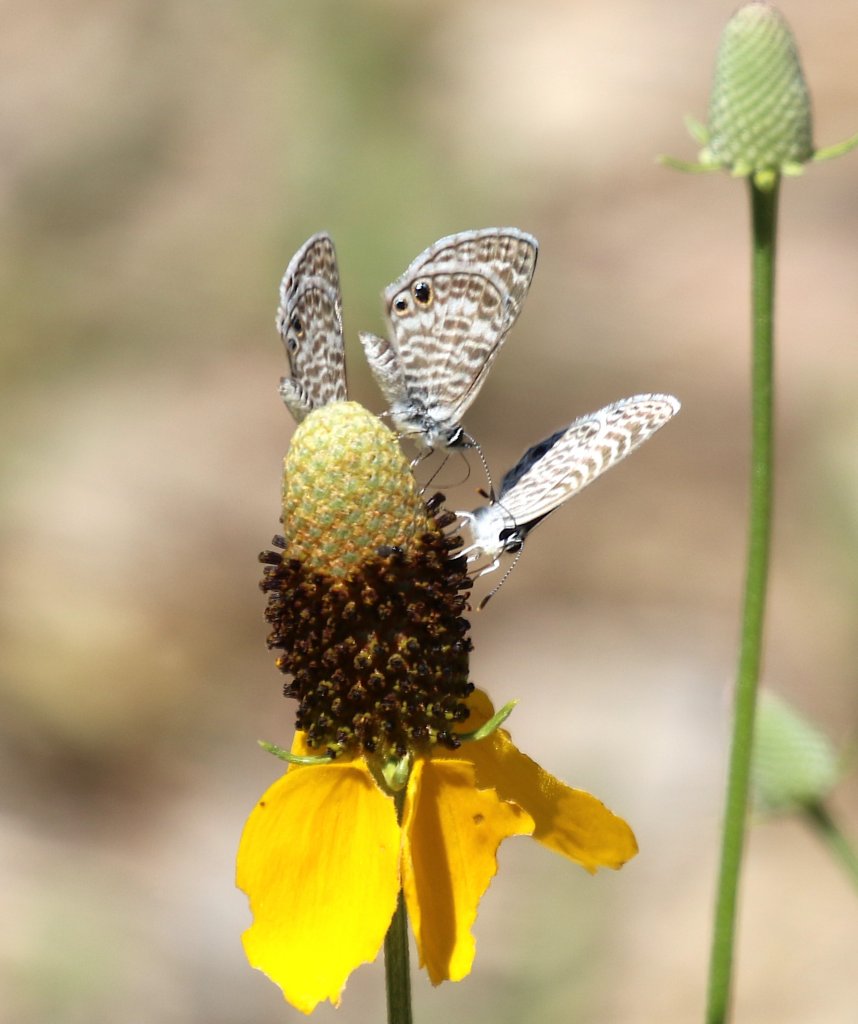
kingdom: Animalia
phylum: Arthropoda
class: Insecta
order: Lepidoptera
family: Lycaenidae
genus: Leptotes
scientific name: Leptotes marina
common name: Marine Blue
